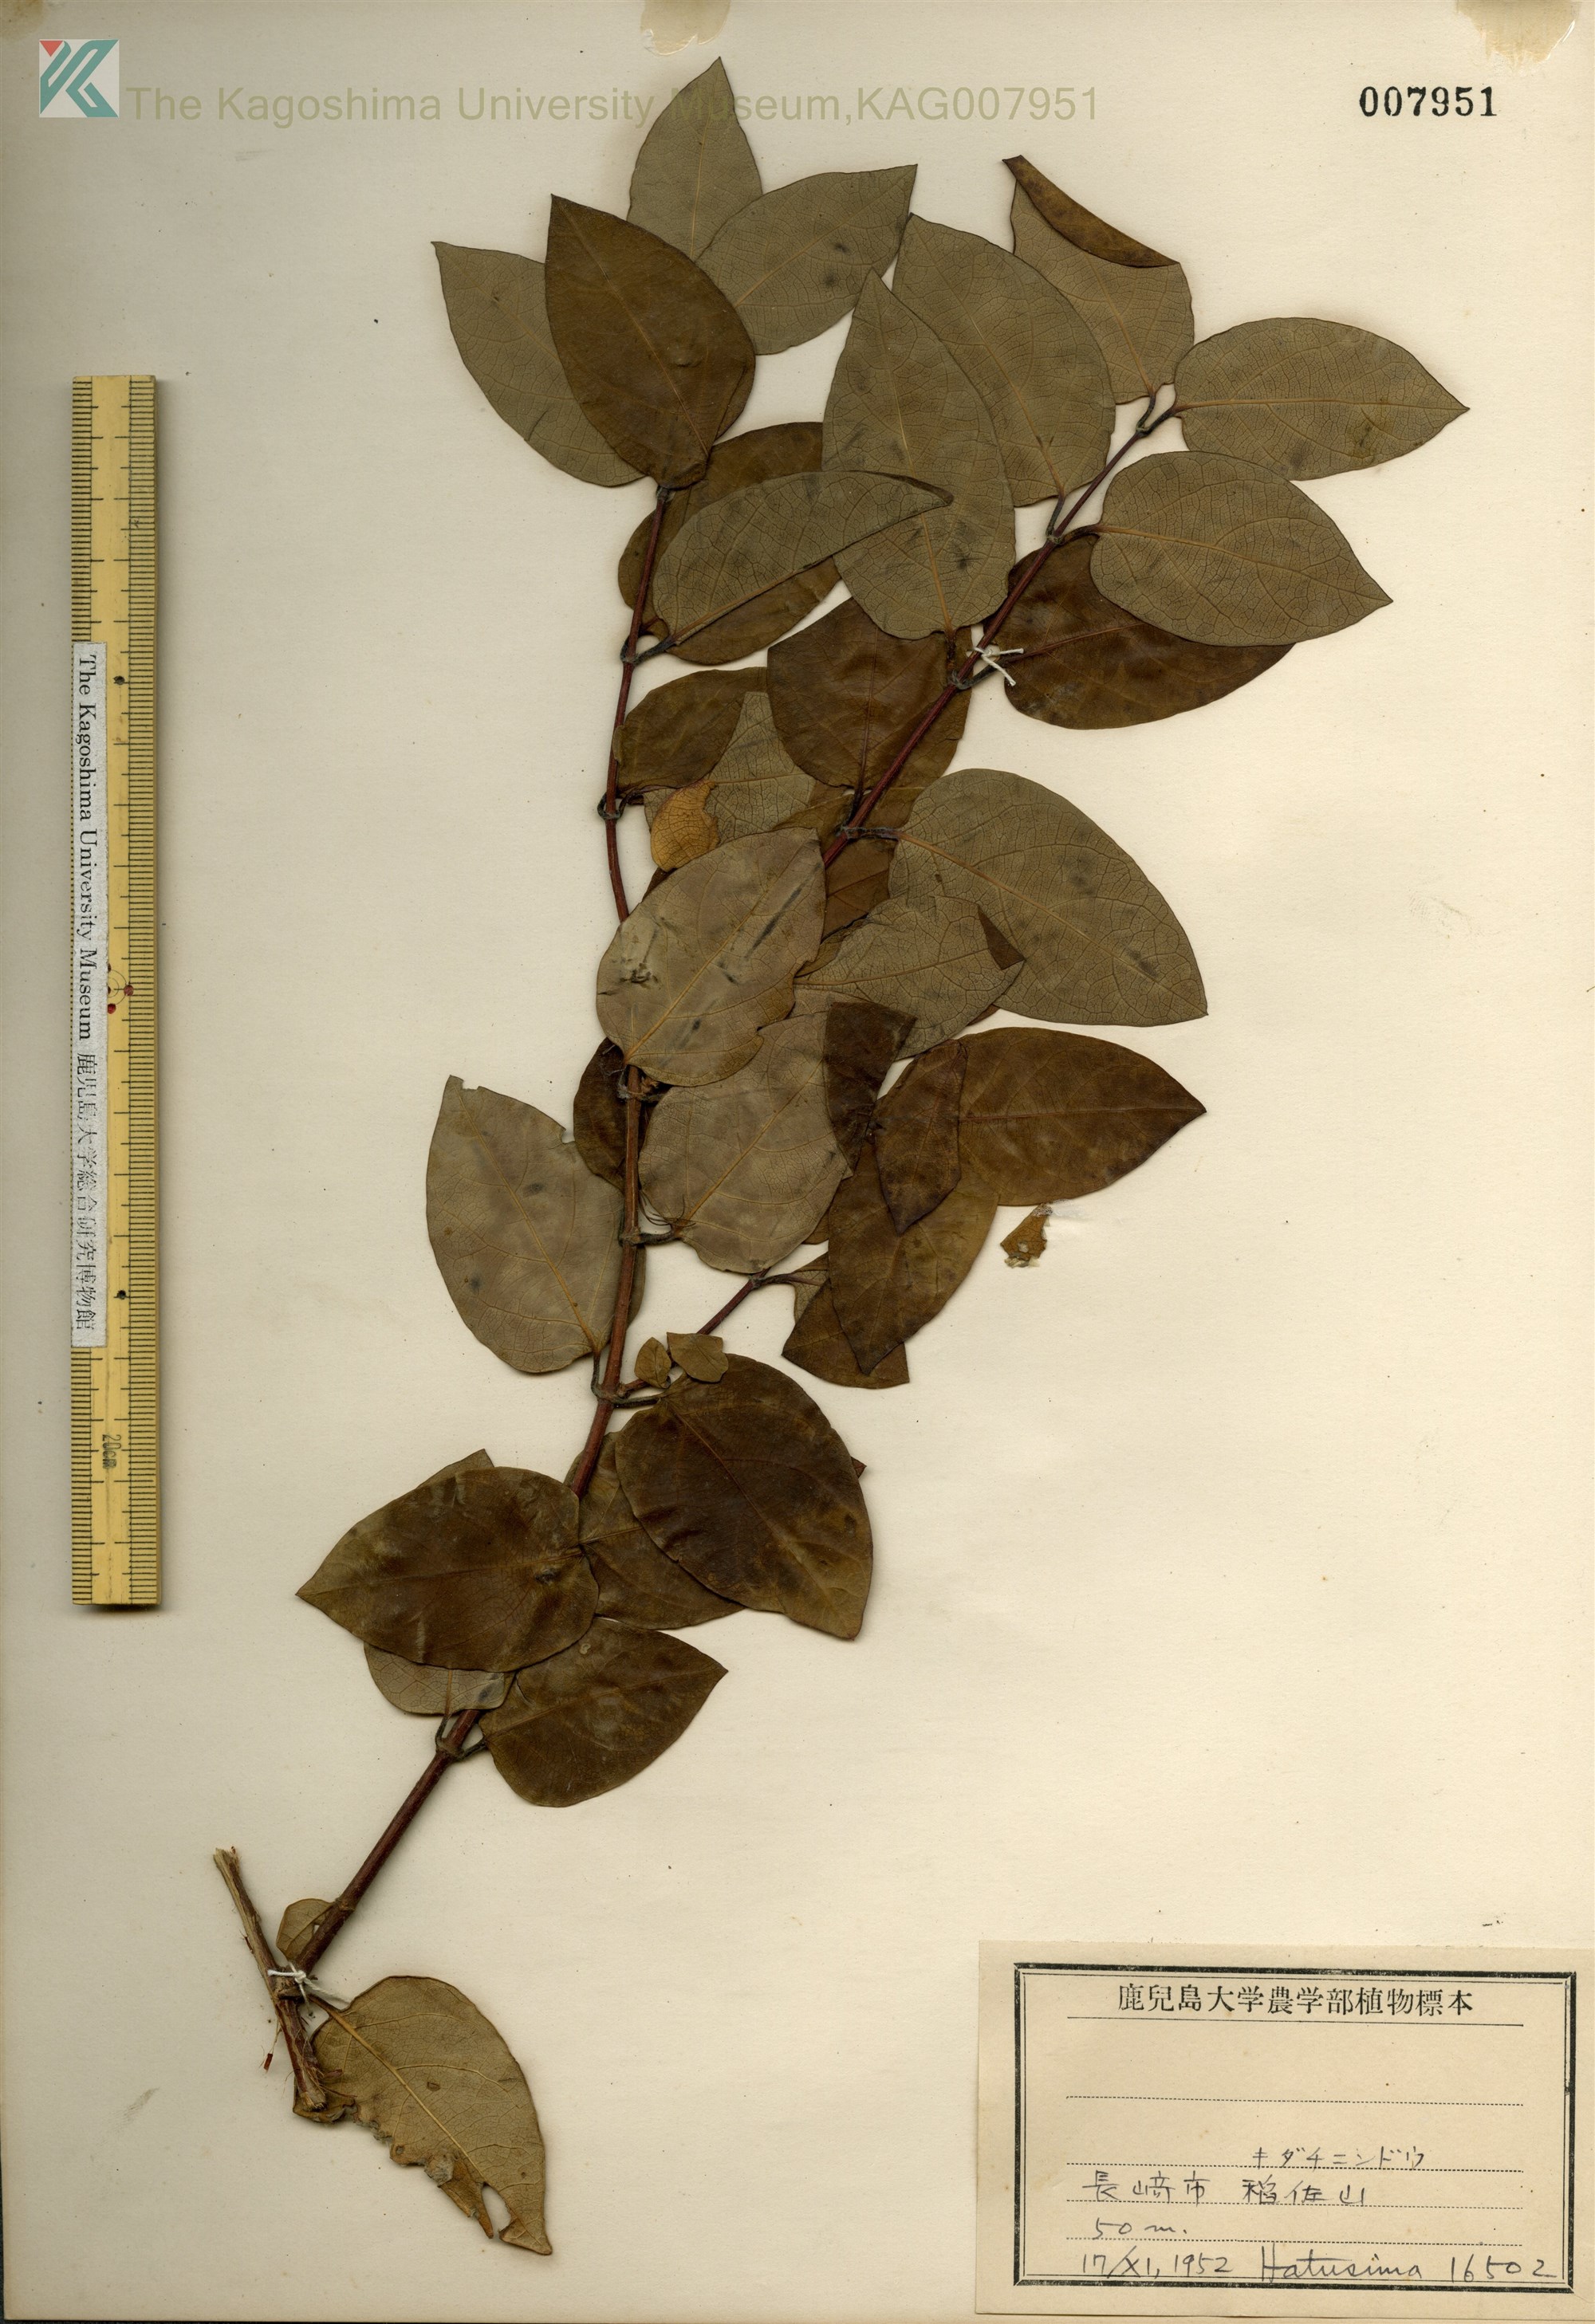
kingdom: Plantae
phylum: Tracheophyta
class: Magnoliopsida
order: Dipsacales
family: Caprifoliaceae
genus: Lonicera
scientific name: Lonicera affinis
